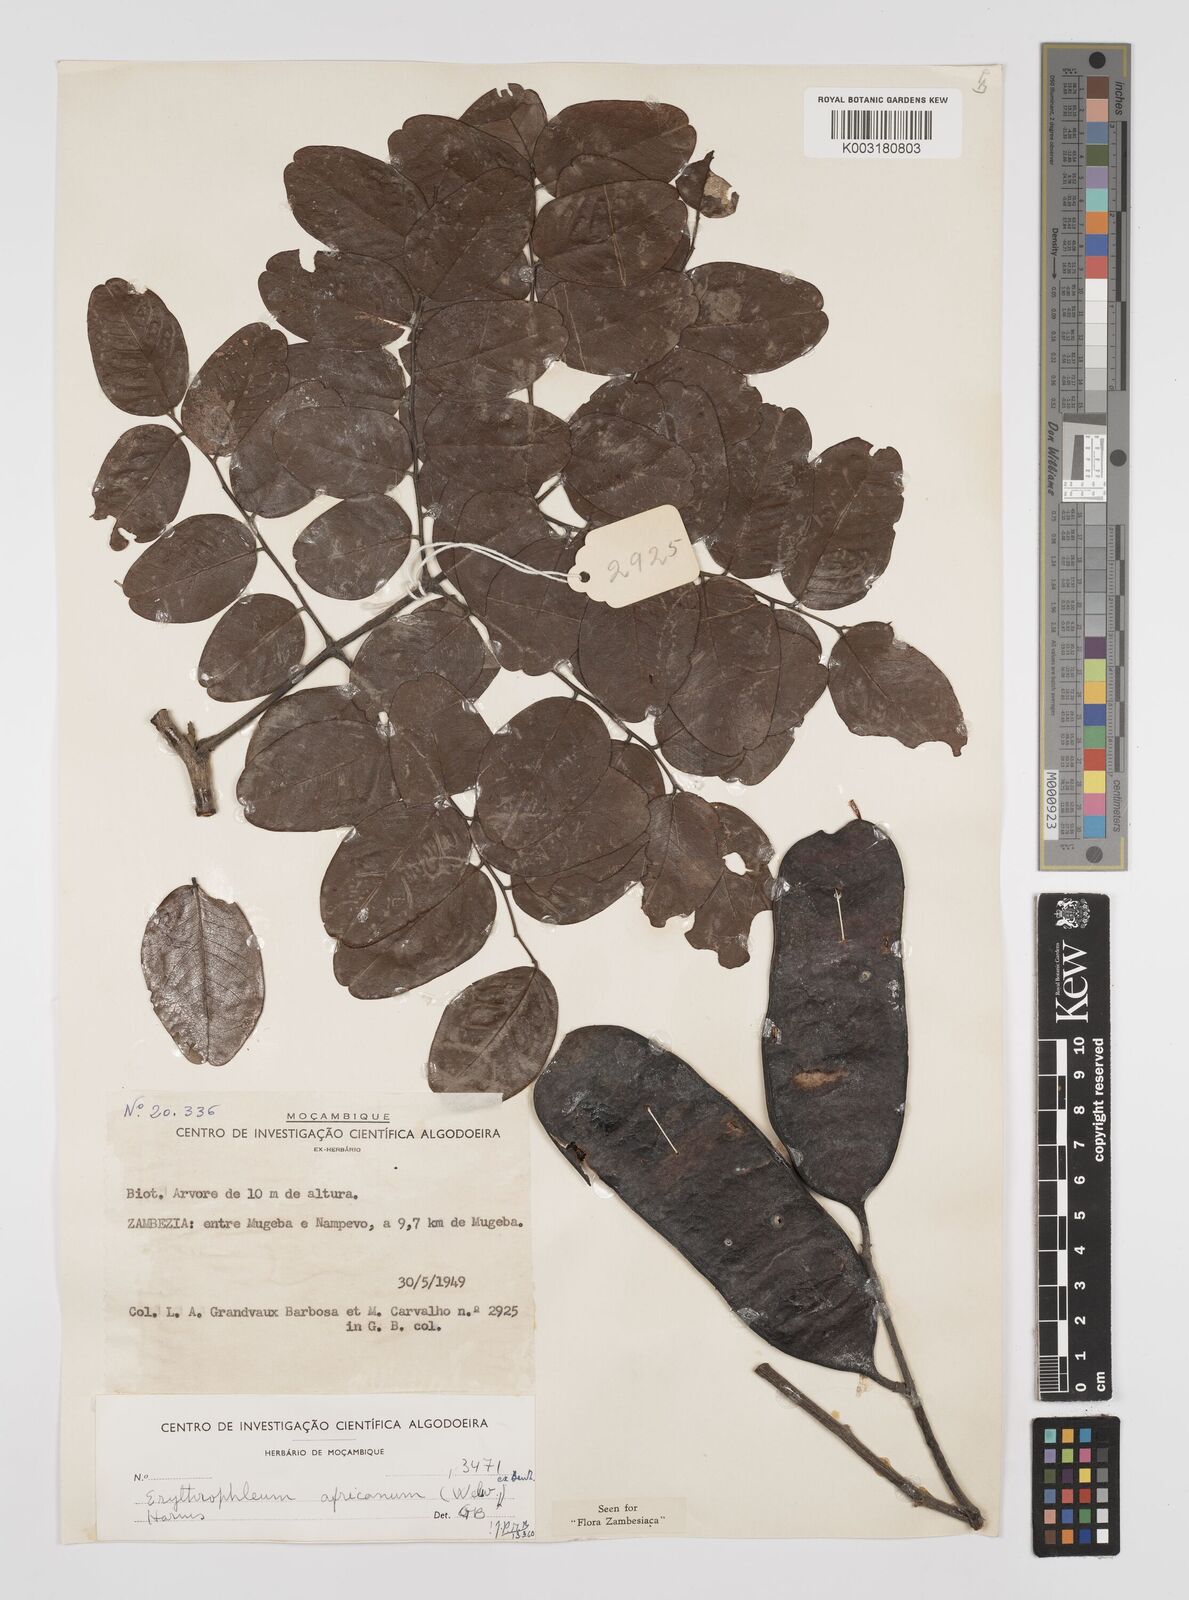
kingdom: Plantae
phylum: Tracheophyta
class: Magnoliopsida
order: Fabales
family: Fabaceae
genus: Peltophorum
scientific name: Peltophorum africanum
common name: African black wattle
